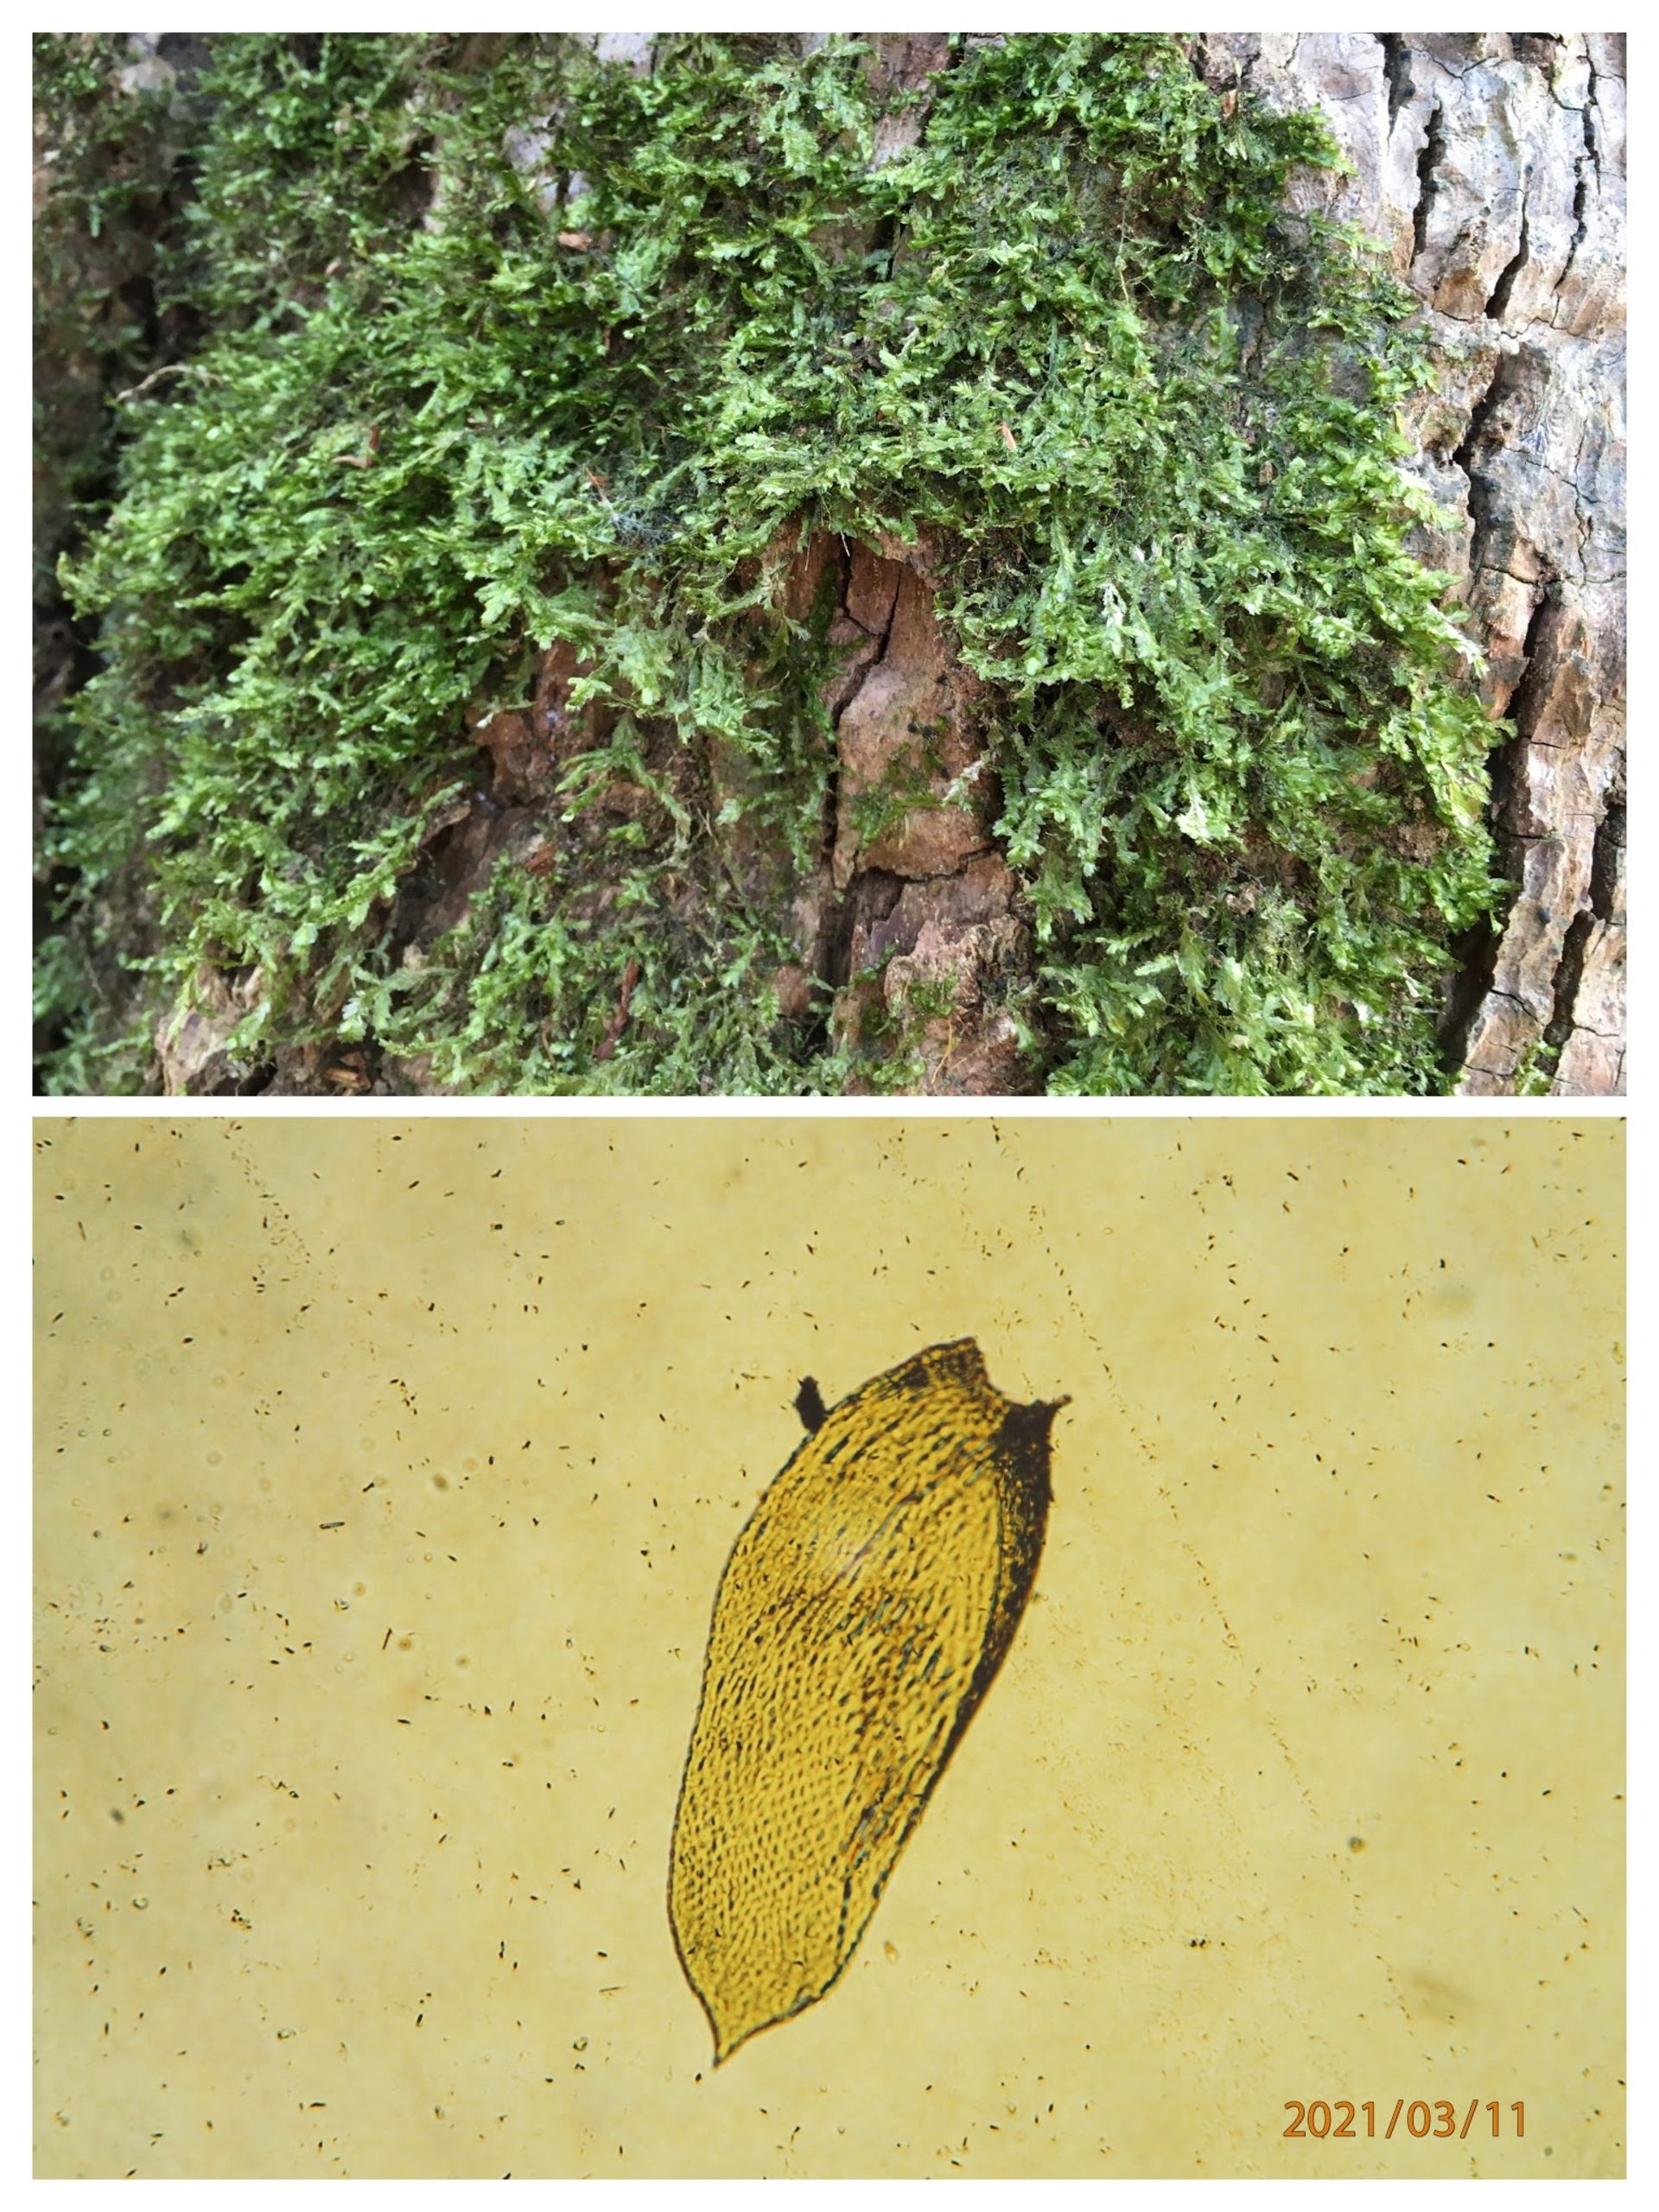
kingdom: Plantae
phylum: Bryophyta
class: Bryopsida
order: Hypnales
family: Neckeraceae
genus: Alleniella
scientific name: Alleniella complanata
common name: Almindelig fladmos
